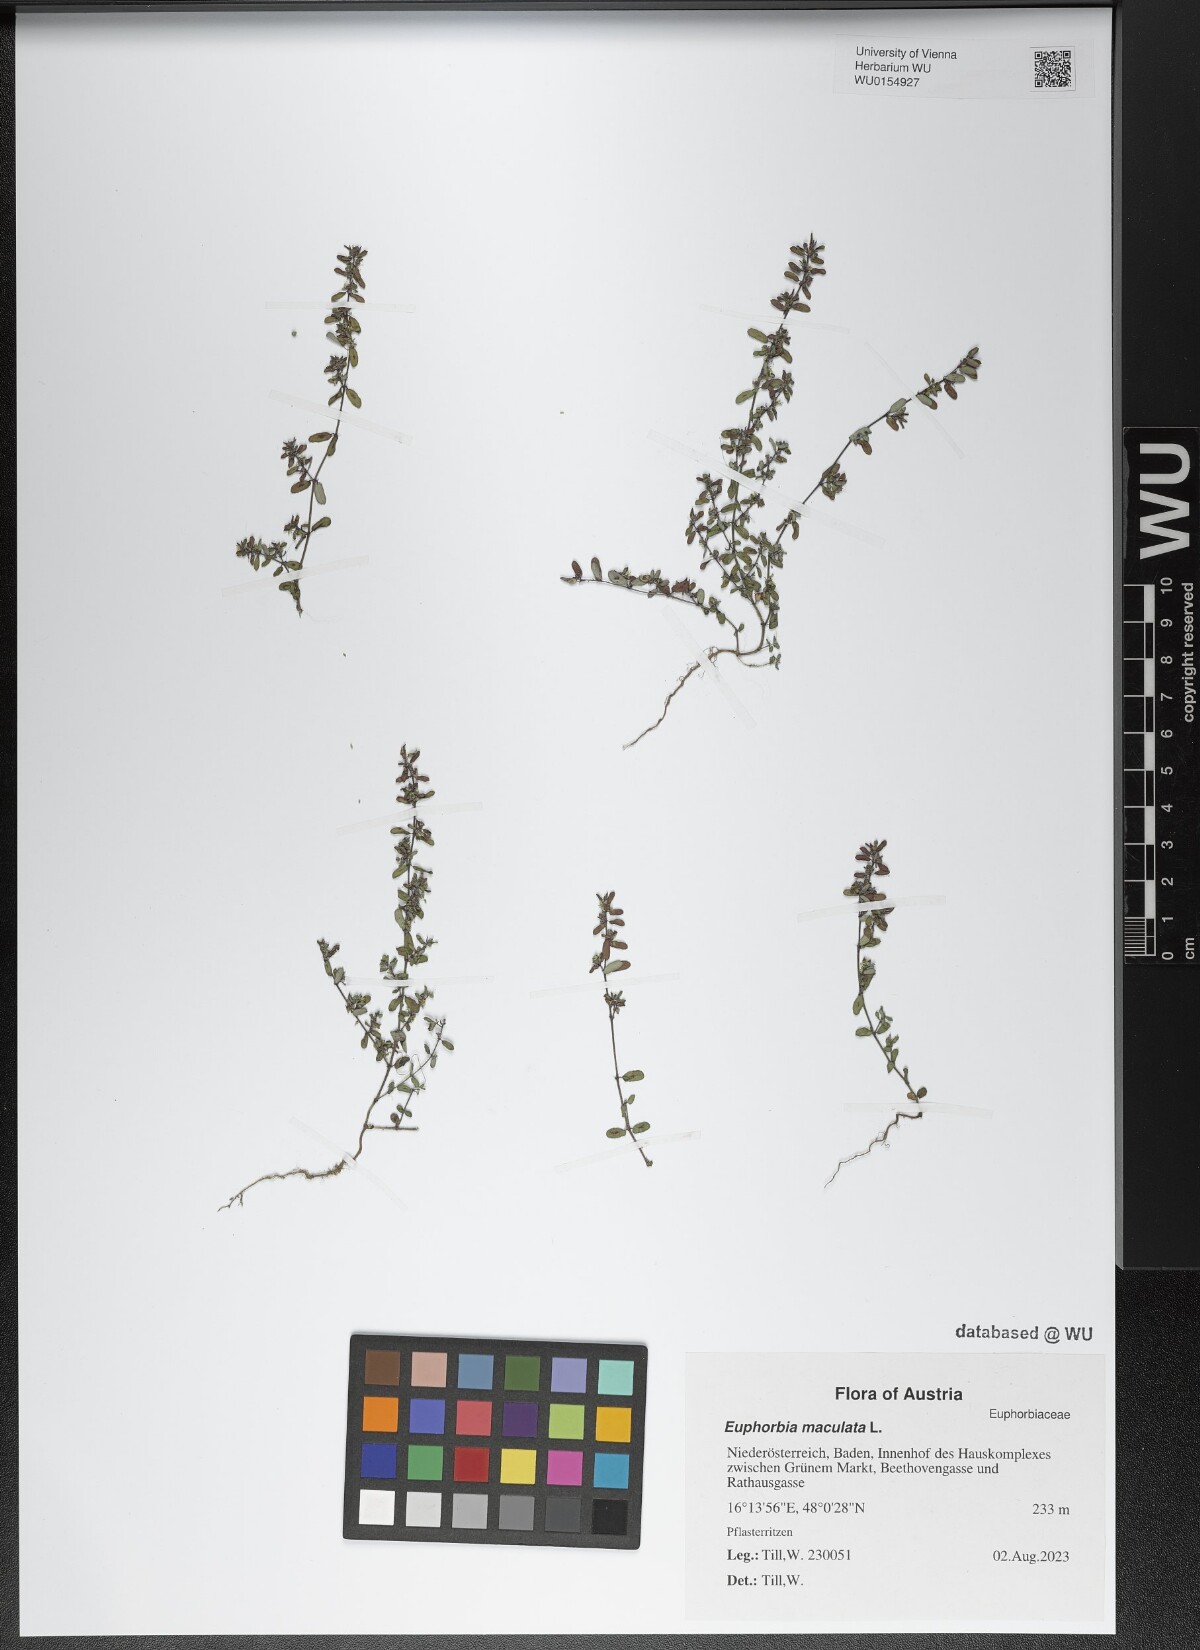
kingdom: Plantae
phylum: Tracheophyta
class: Magnoliopsida
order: Malpighiales
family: Euphorbiaceae
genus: Euphorbia
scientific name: Euphorbia maculata
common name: Spotted spurge
